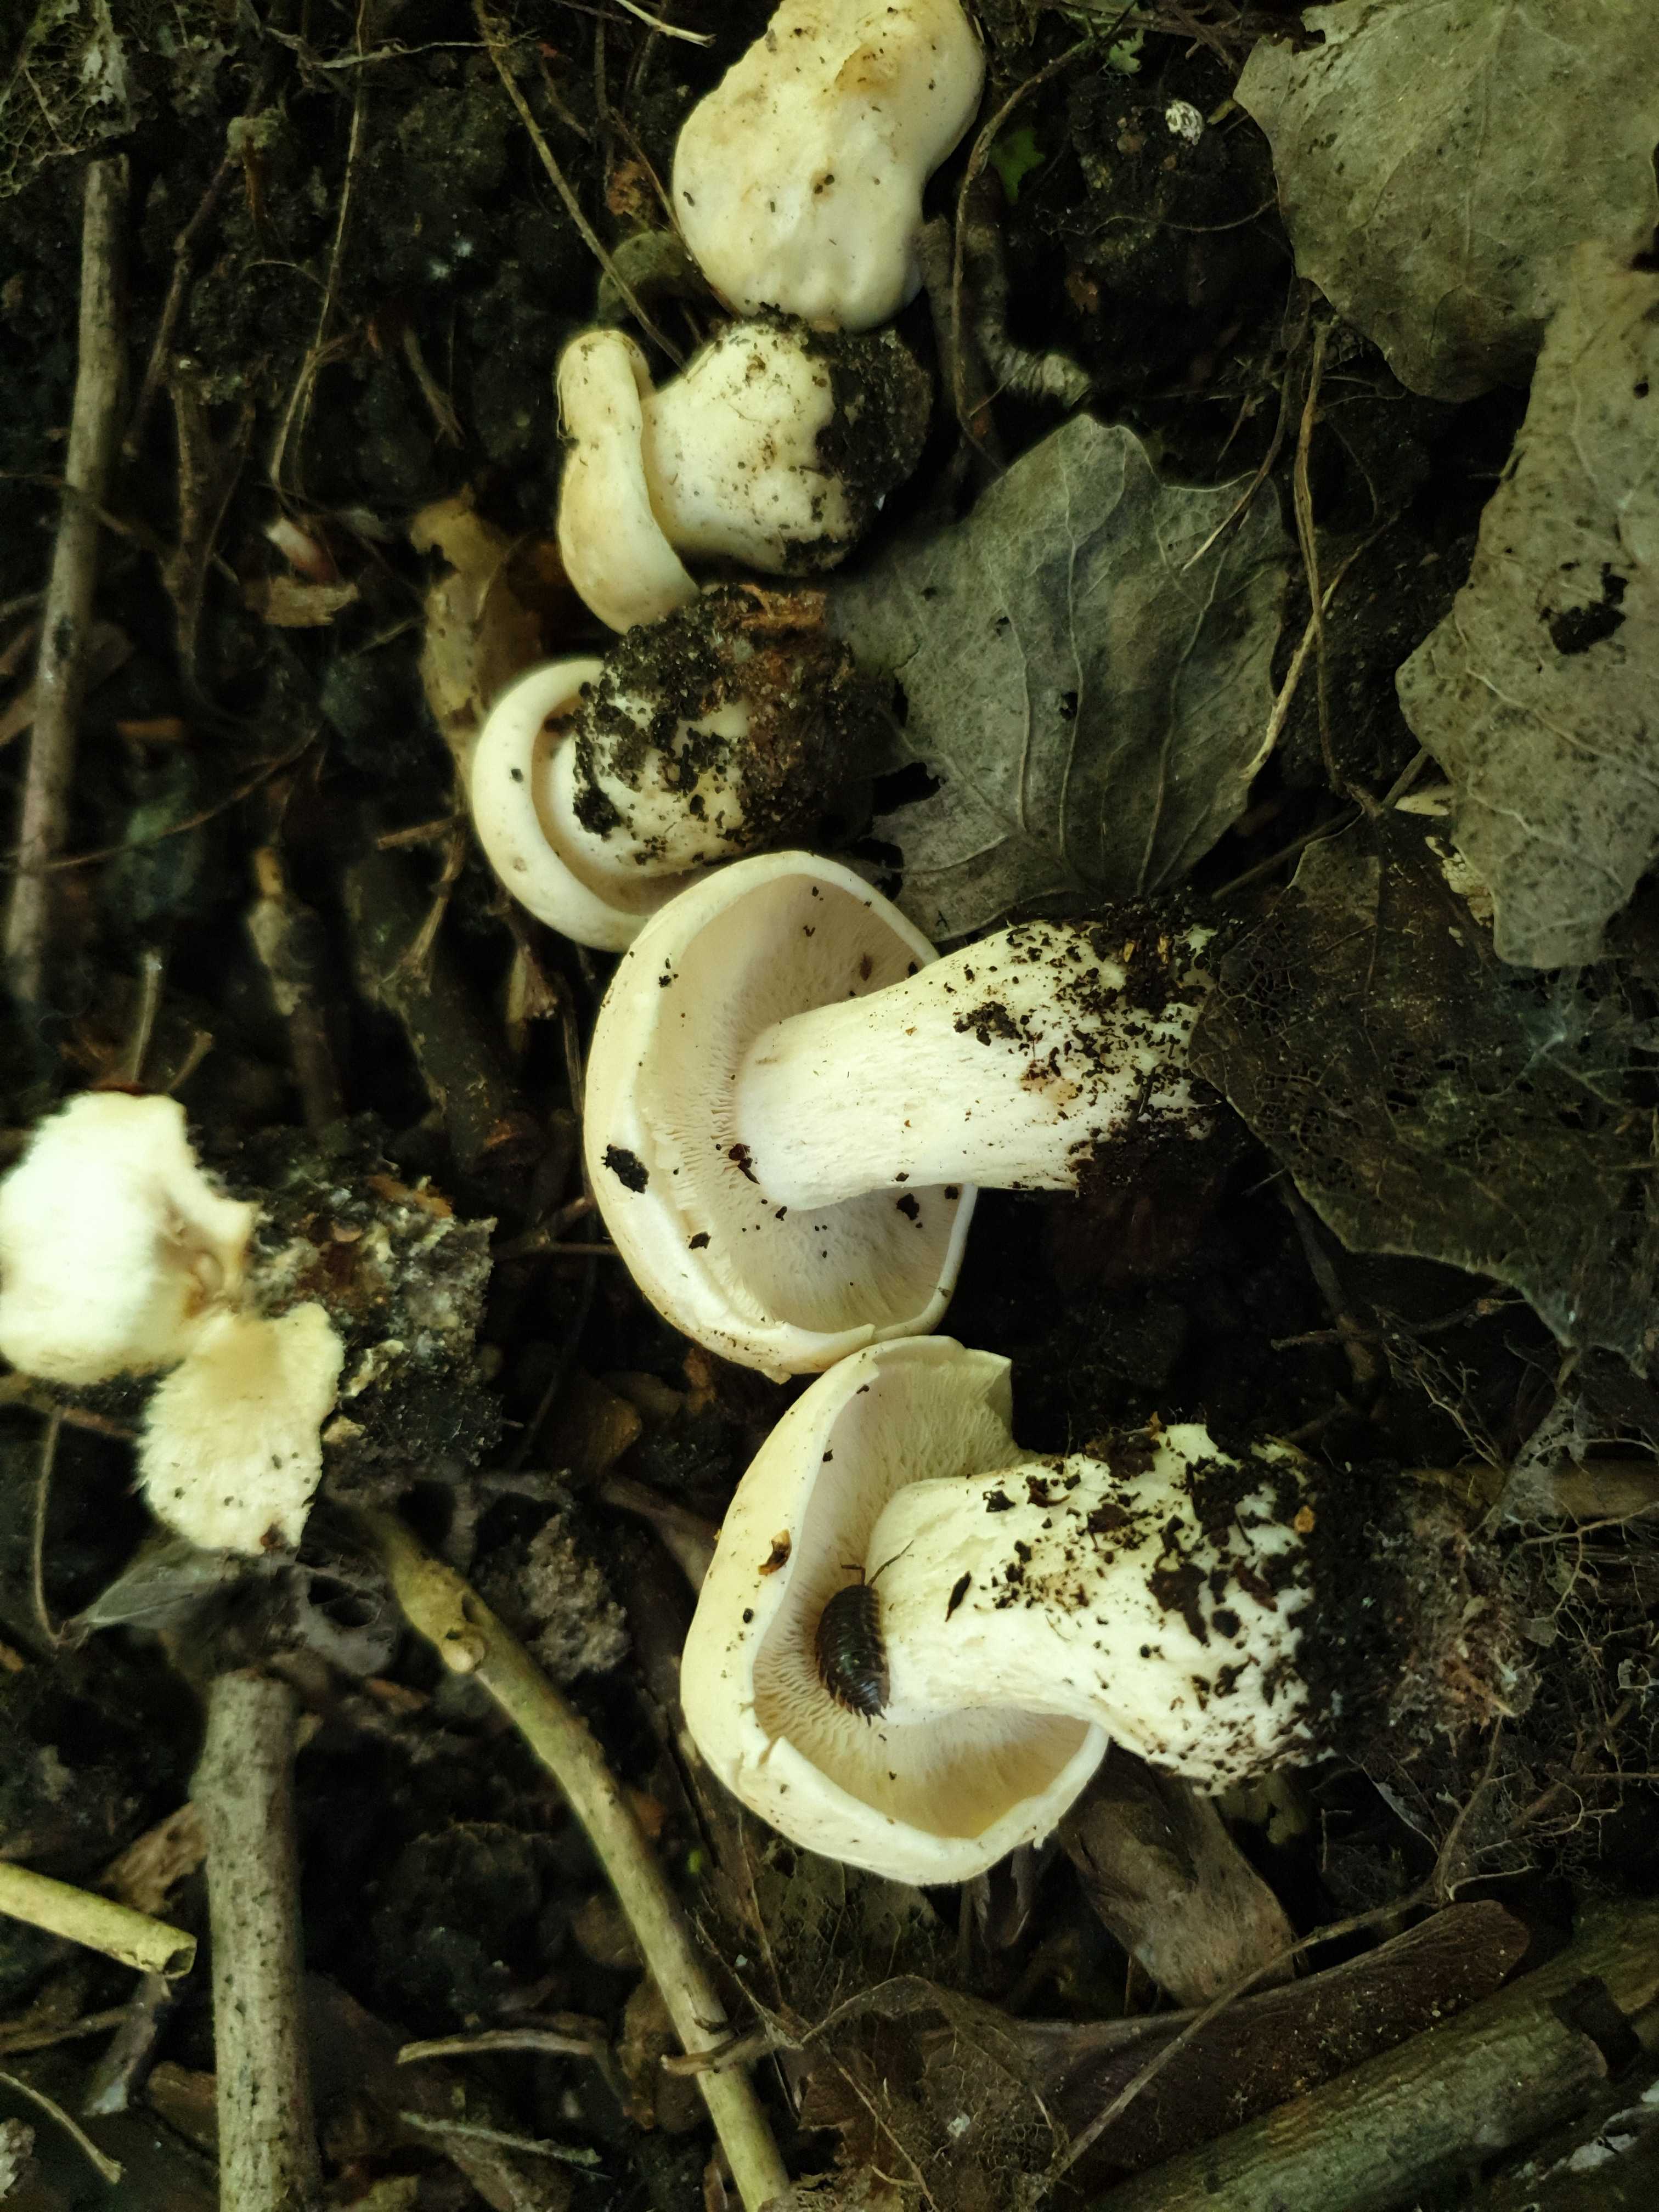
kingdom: Fungi
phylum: Basidiomycota
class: Agaricomycetes
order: Agaricales
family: Lyophyllaceae
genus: Calocybe
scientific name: Calocybe gambosa
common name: vårmusseron
